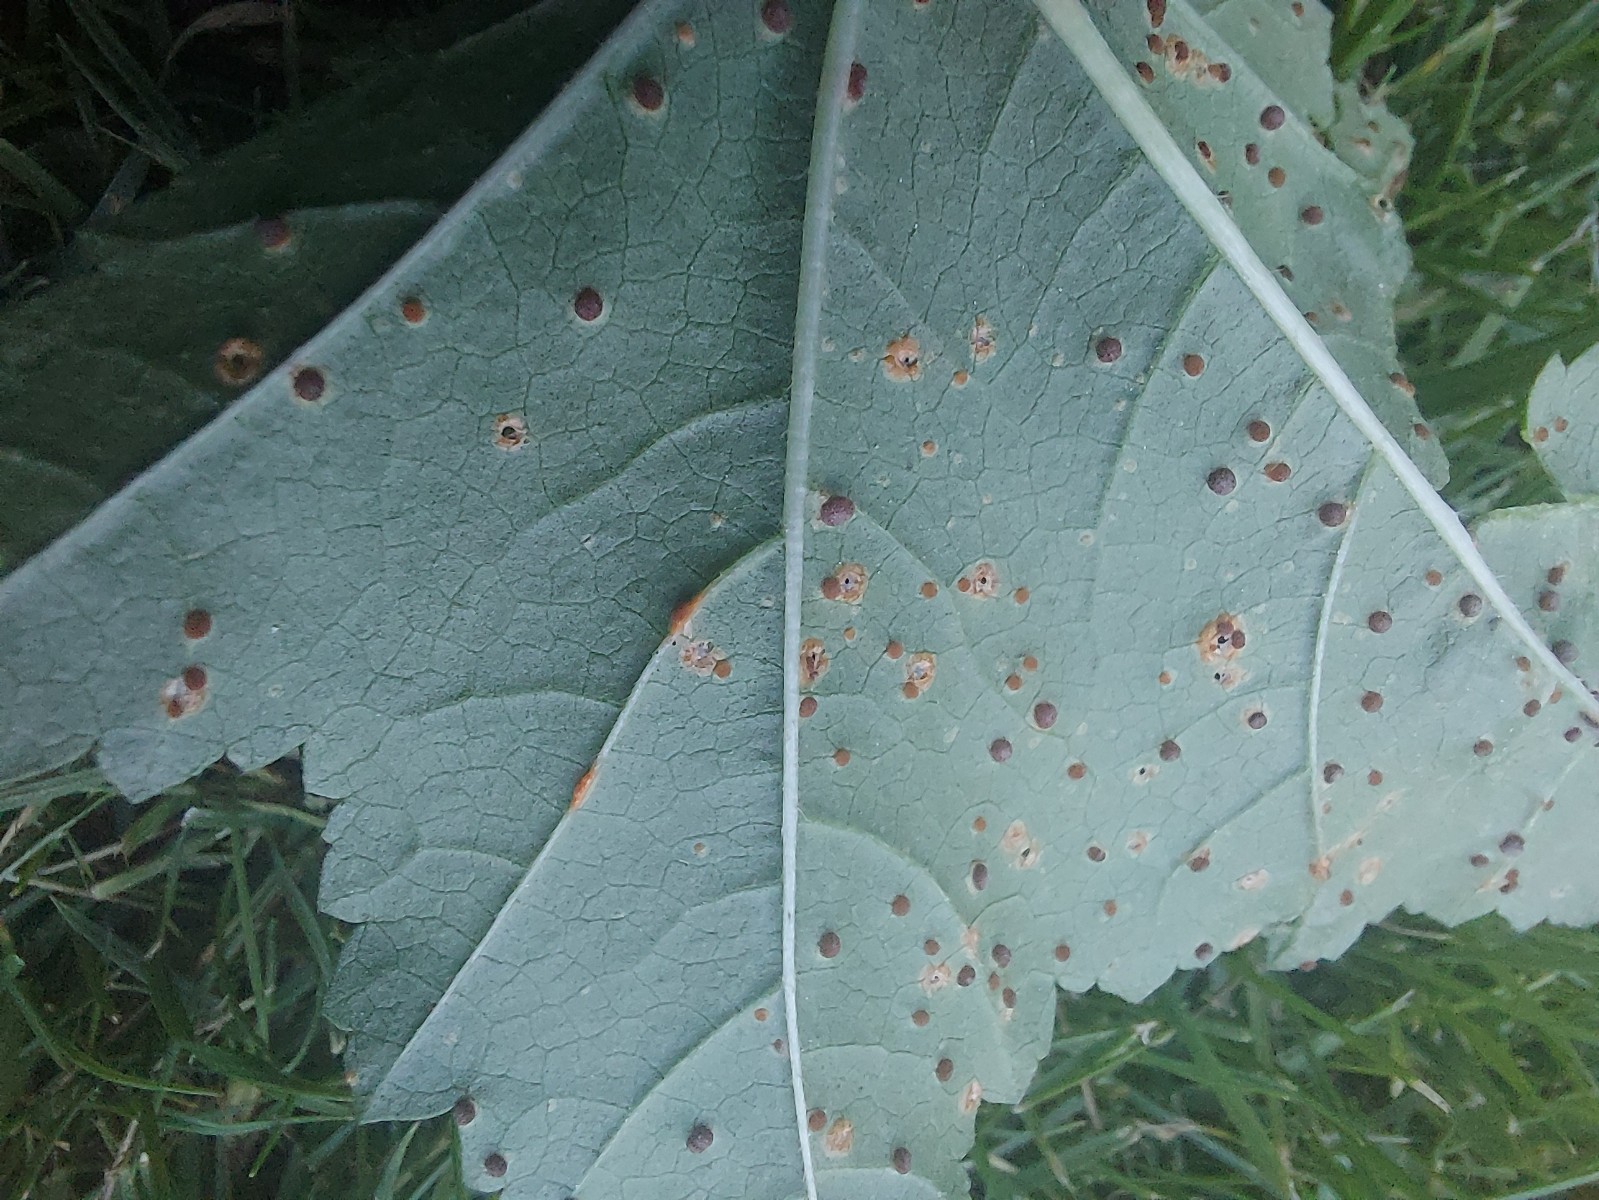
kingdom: Fungi
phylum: Basidiomycota
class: Pucciniomycetes
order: Pucciniales
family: Pucciniaceae
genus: Puccinia
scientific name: Puccinia malvacearum
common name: stokrose-tvecellerust
